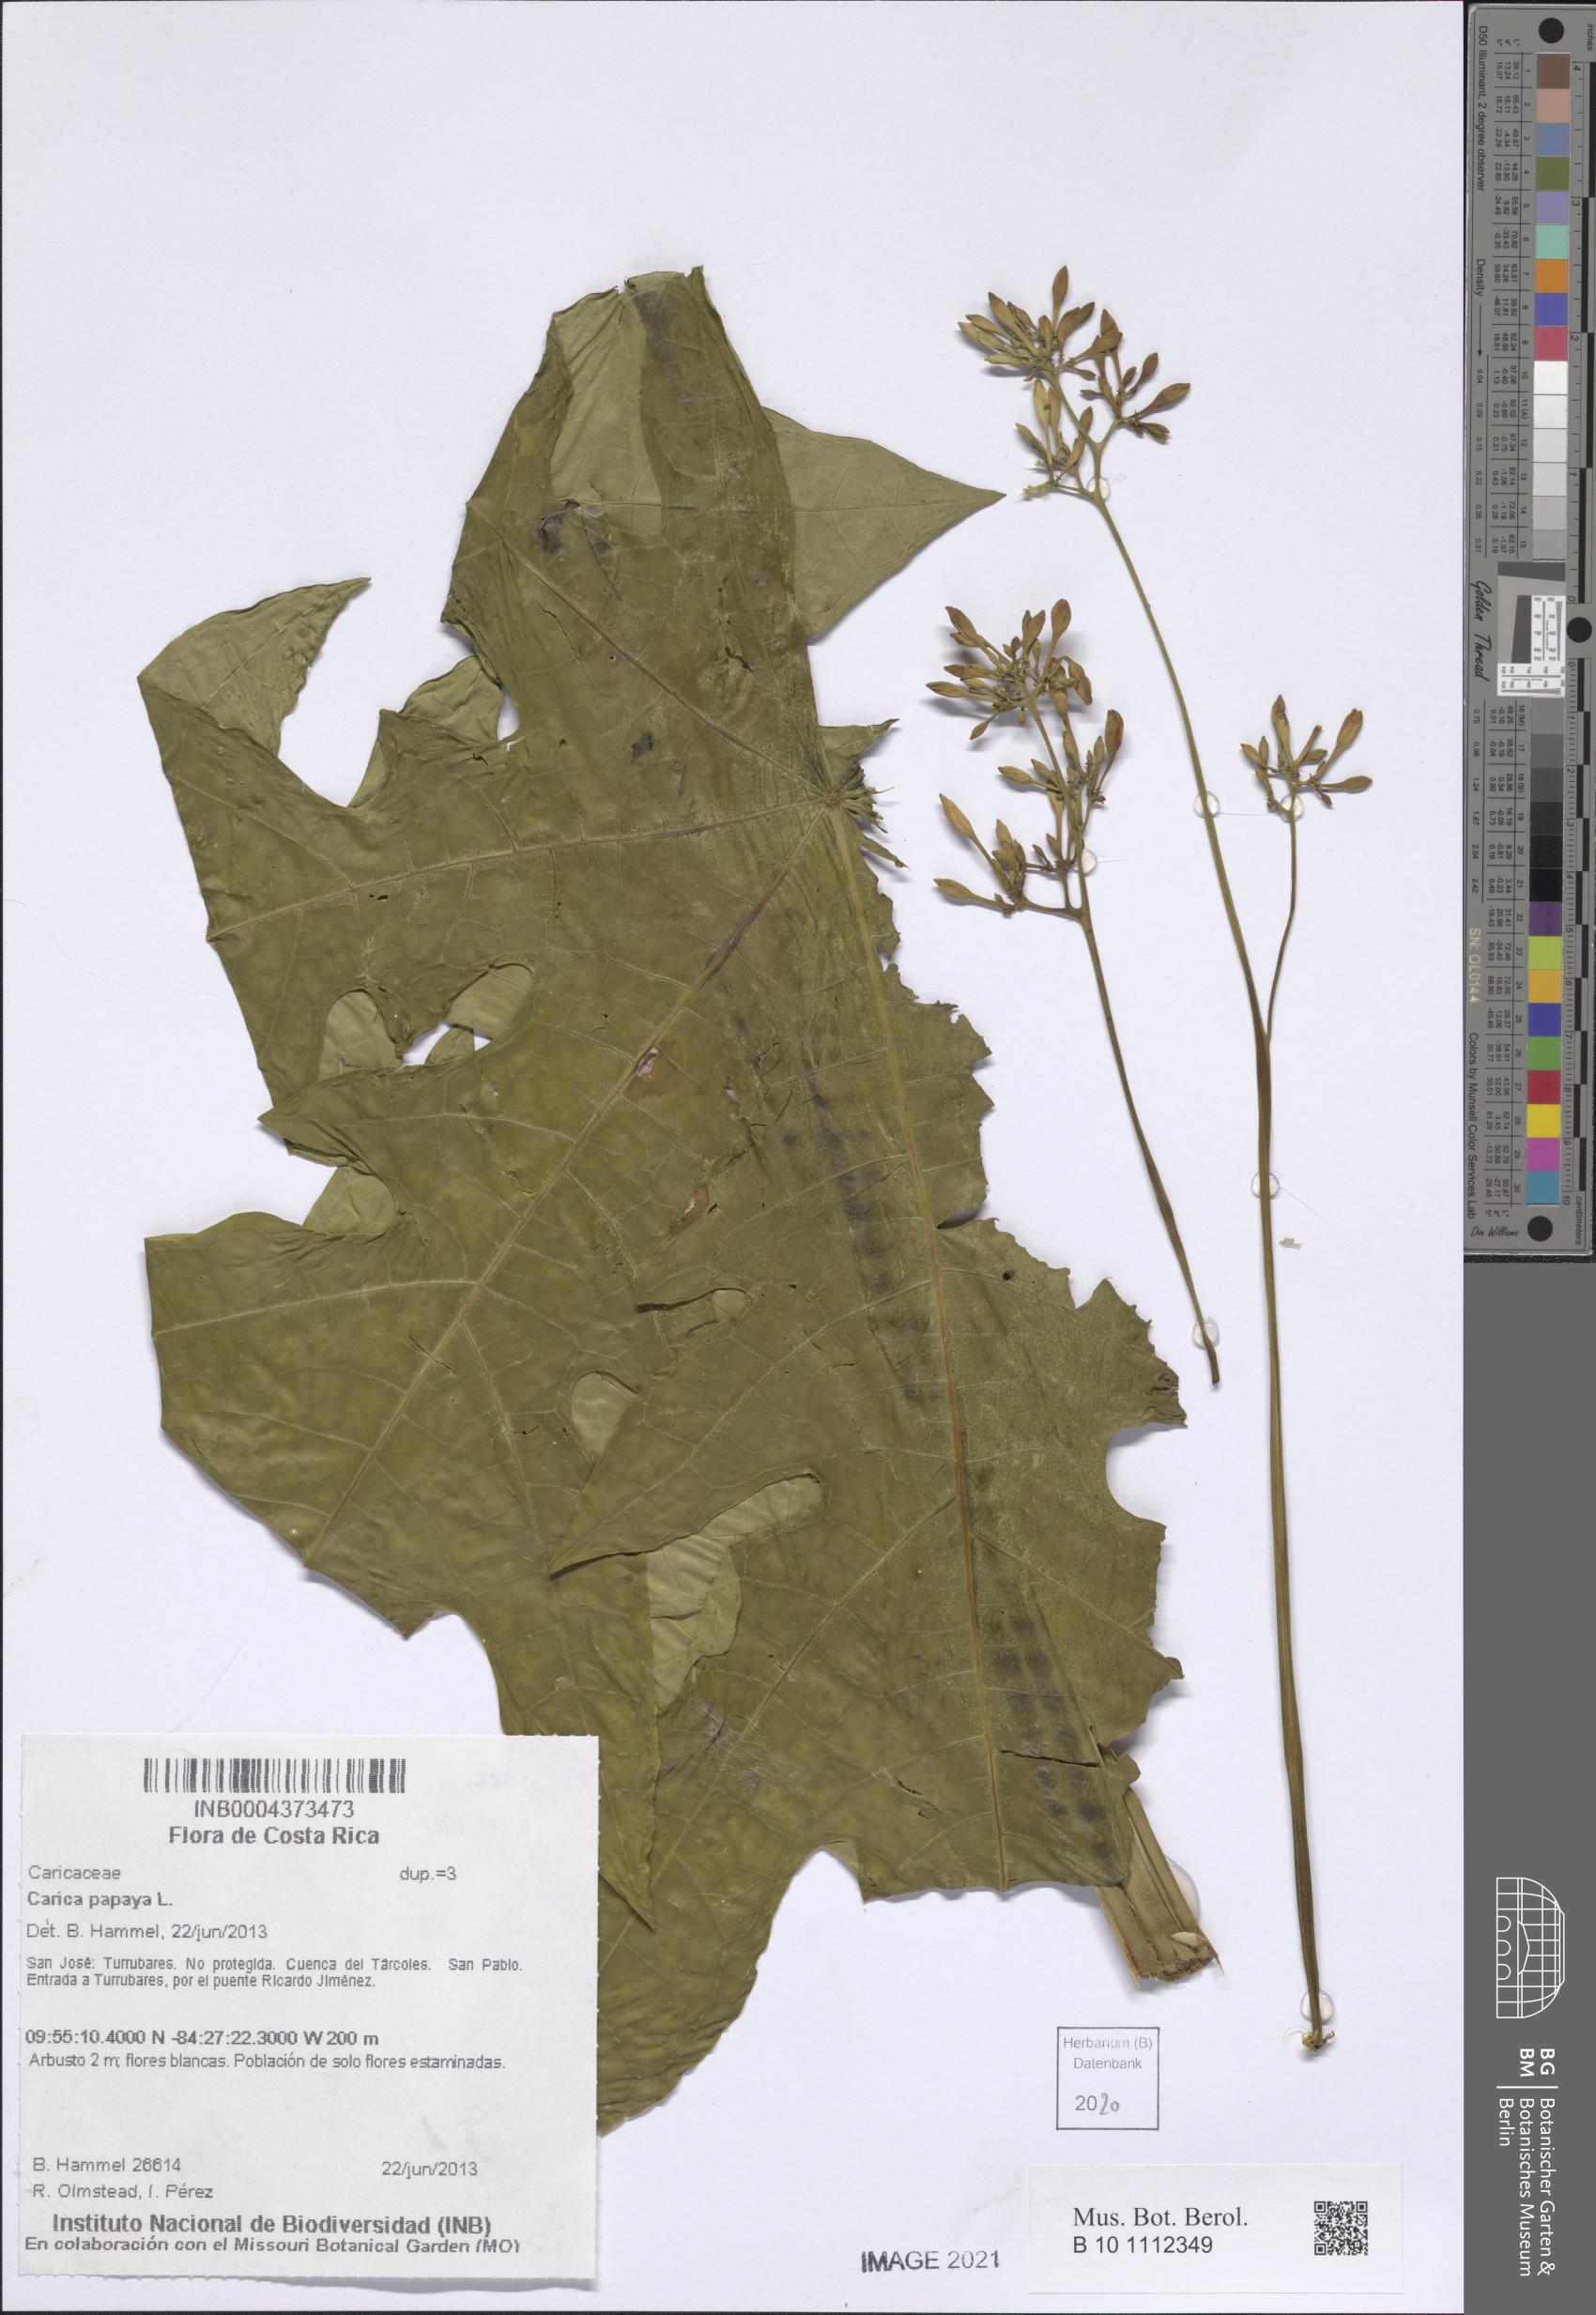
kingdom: Plantae
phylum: Tracheophyta
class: Magnoliopsida
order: Brassicales
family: Caricaceae
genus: Carica
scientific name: Carica papaya
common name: Papaya
